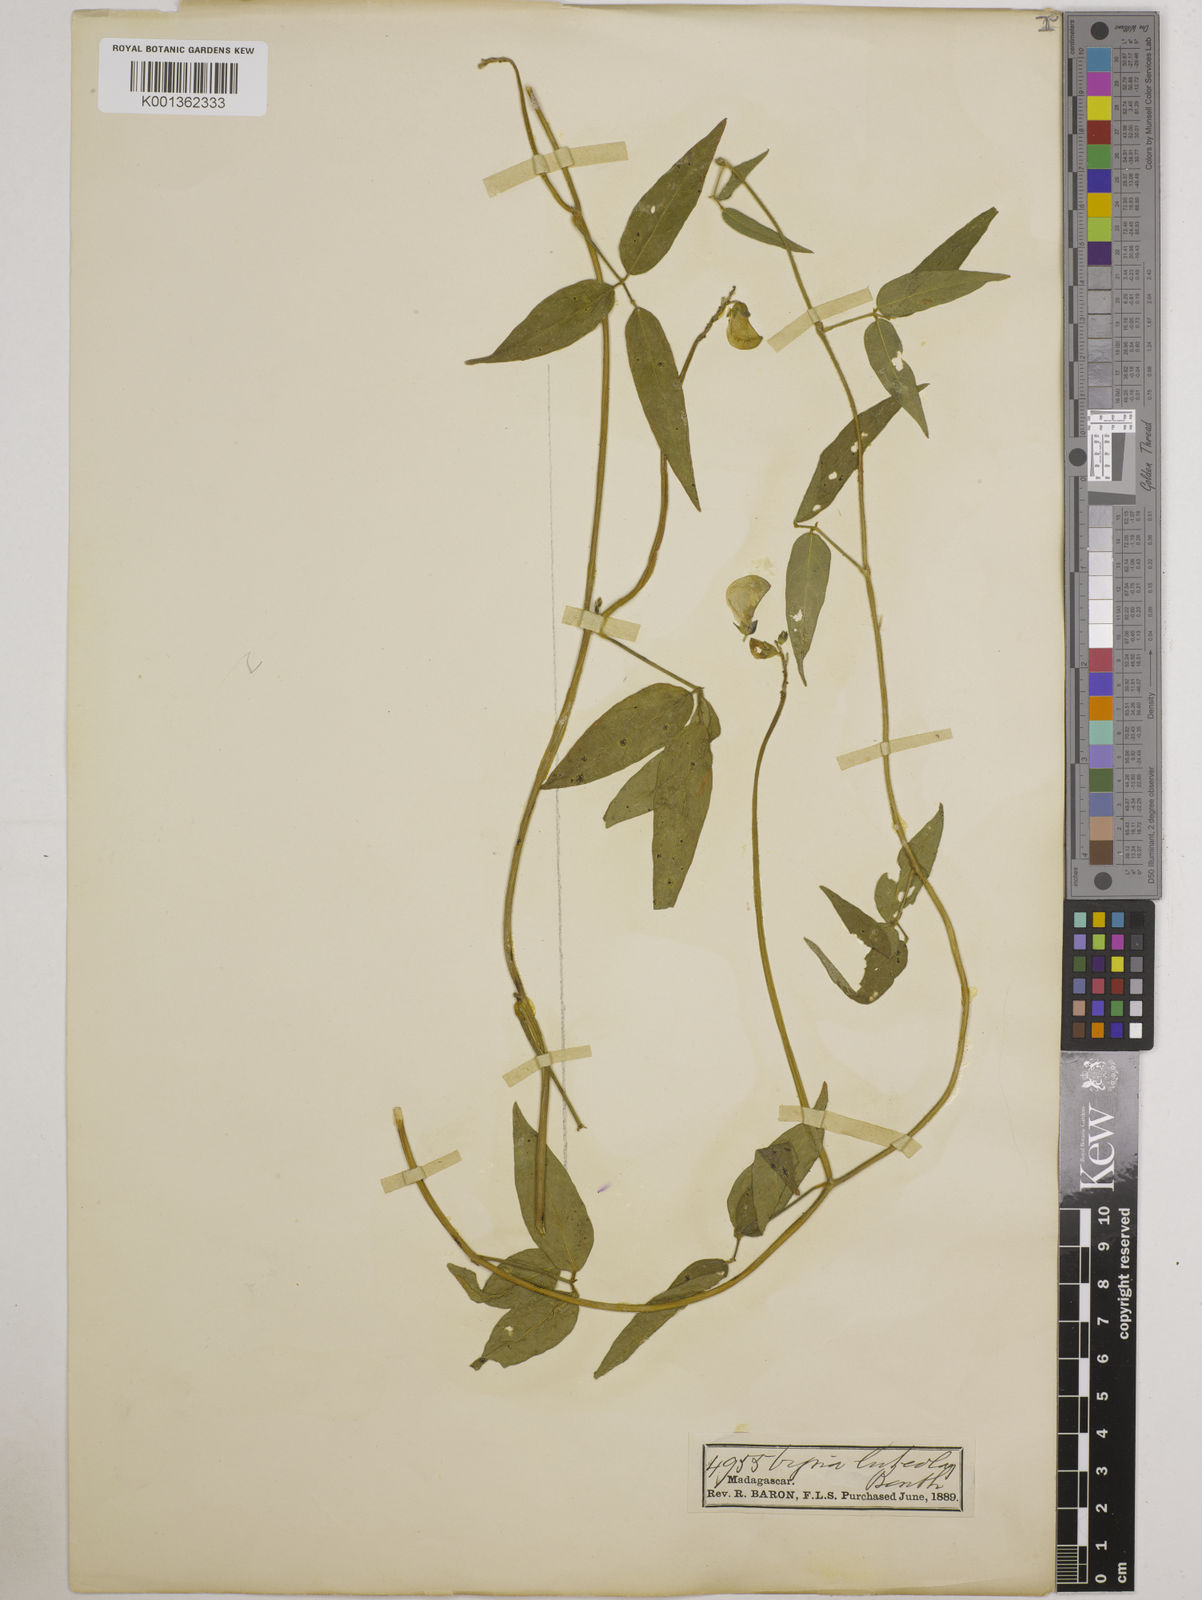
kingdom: Plantae
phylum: Tracheophyta
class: Magnoliopsida
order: Fabales
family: Fabaceae
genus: Vigna
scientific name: Vigna luteola
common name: Hairypod cowpea
